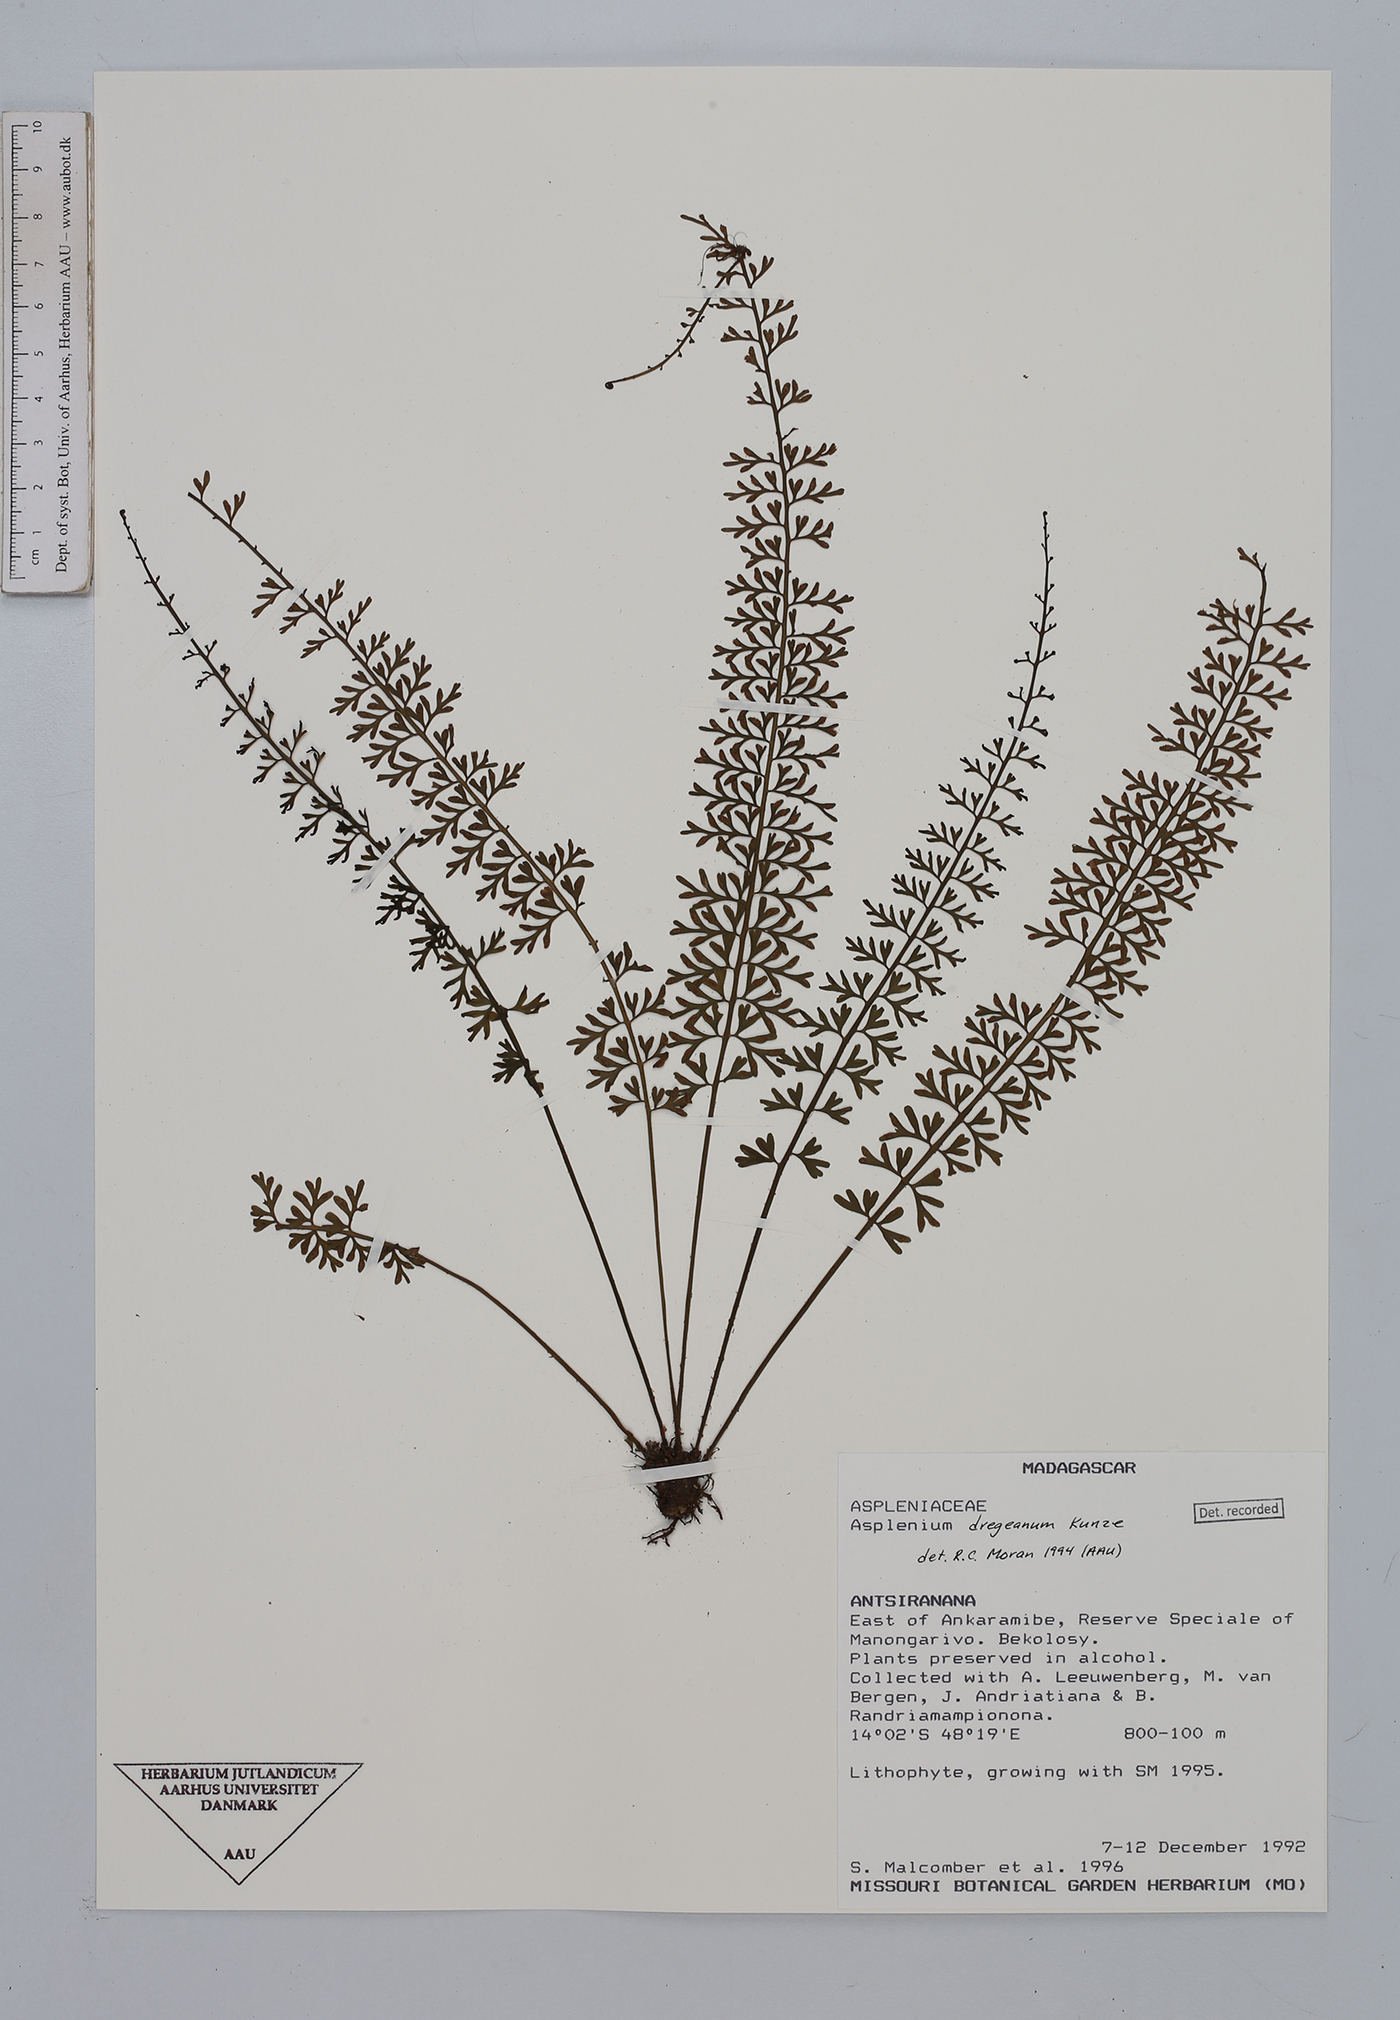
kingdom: Plantae
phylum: Tracheophyta
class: Polypodiopsida
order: Polypodiales
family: Aspleniaceae
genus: Asplenium
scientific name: Asplenium dregeanum
